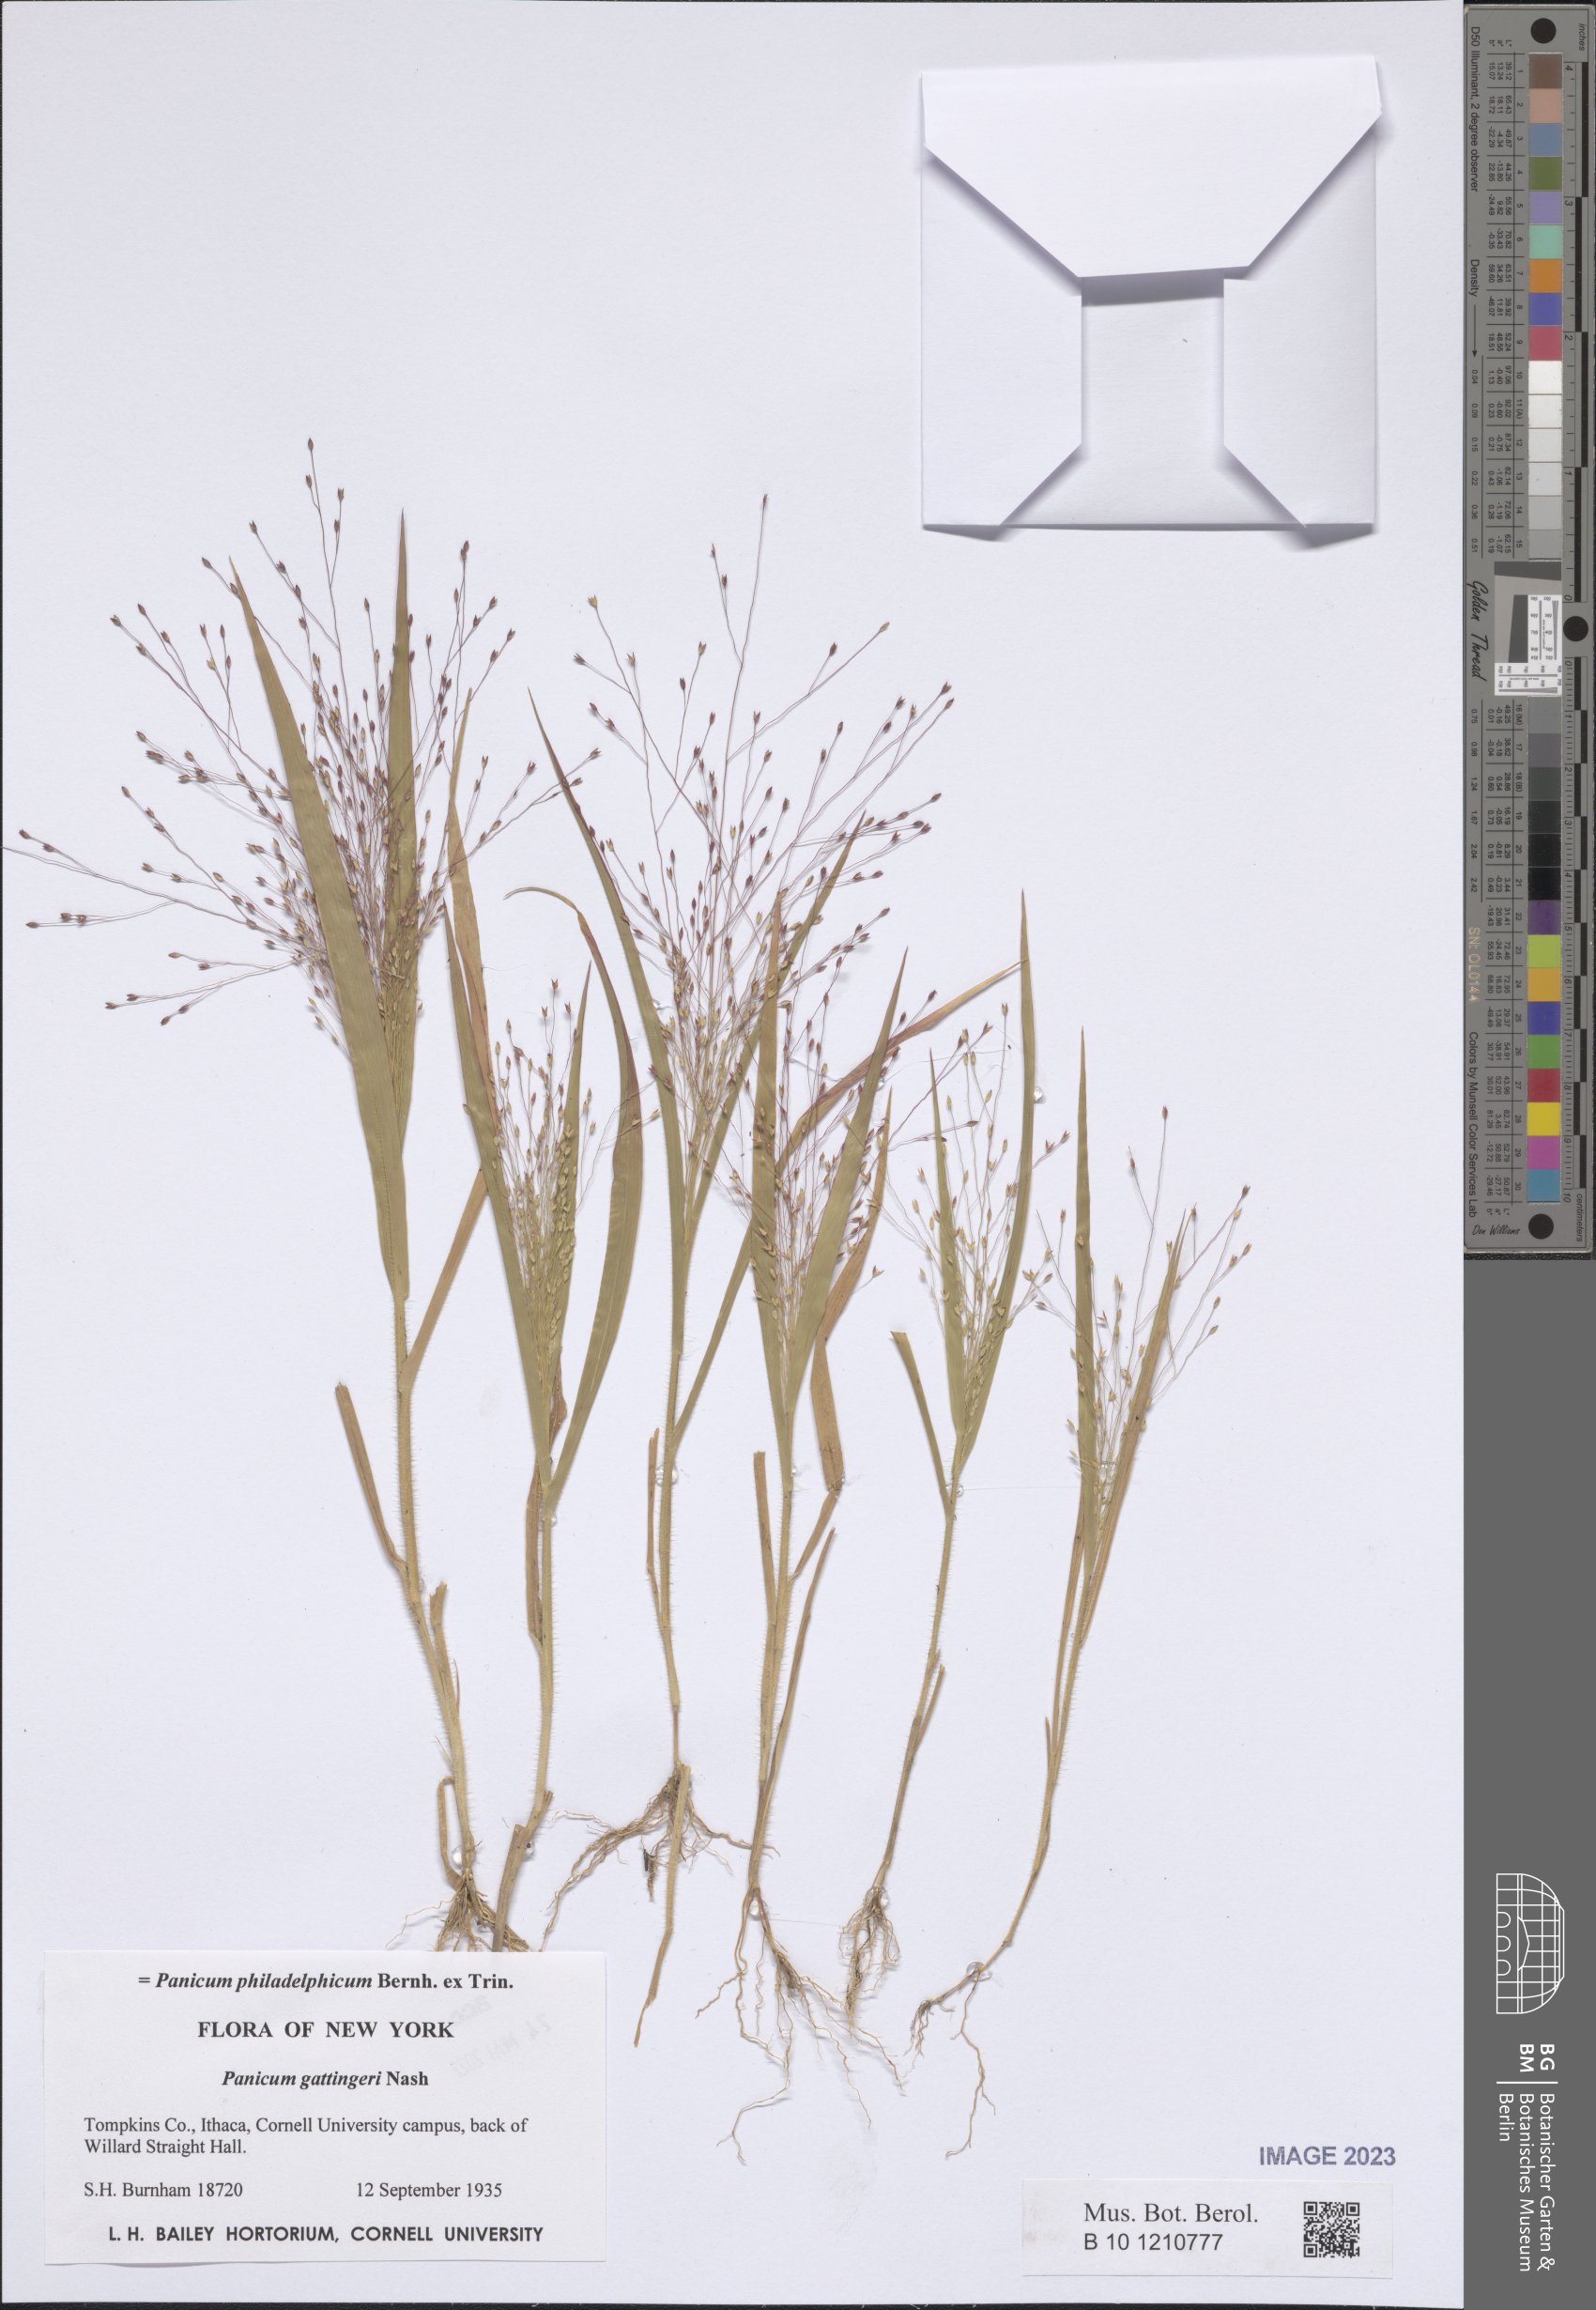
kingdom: Plantae
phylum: Tracheophyta
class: Liliopsida
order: Poales
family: Poaceae
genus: Panicum
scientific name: Panicum philadelphicum
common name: Philadelphia witchgrass
